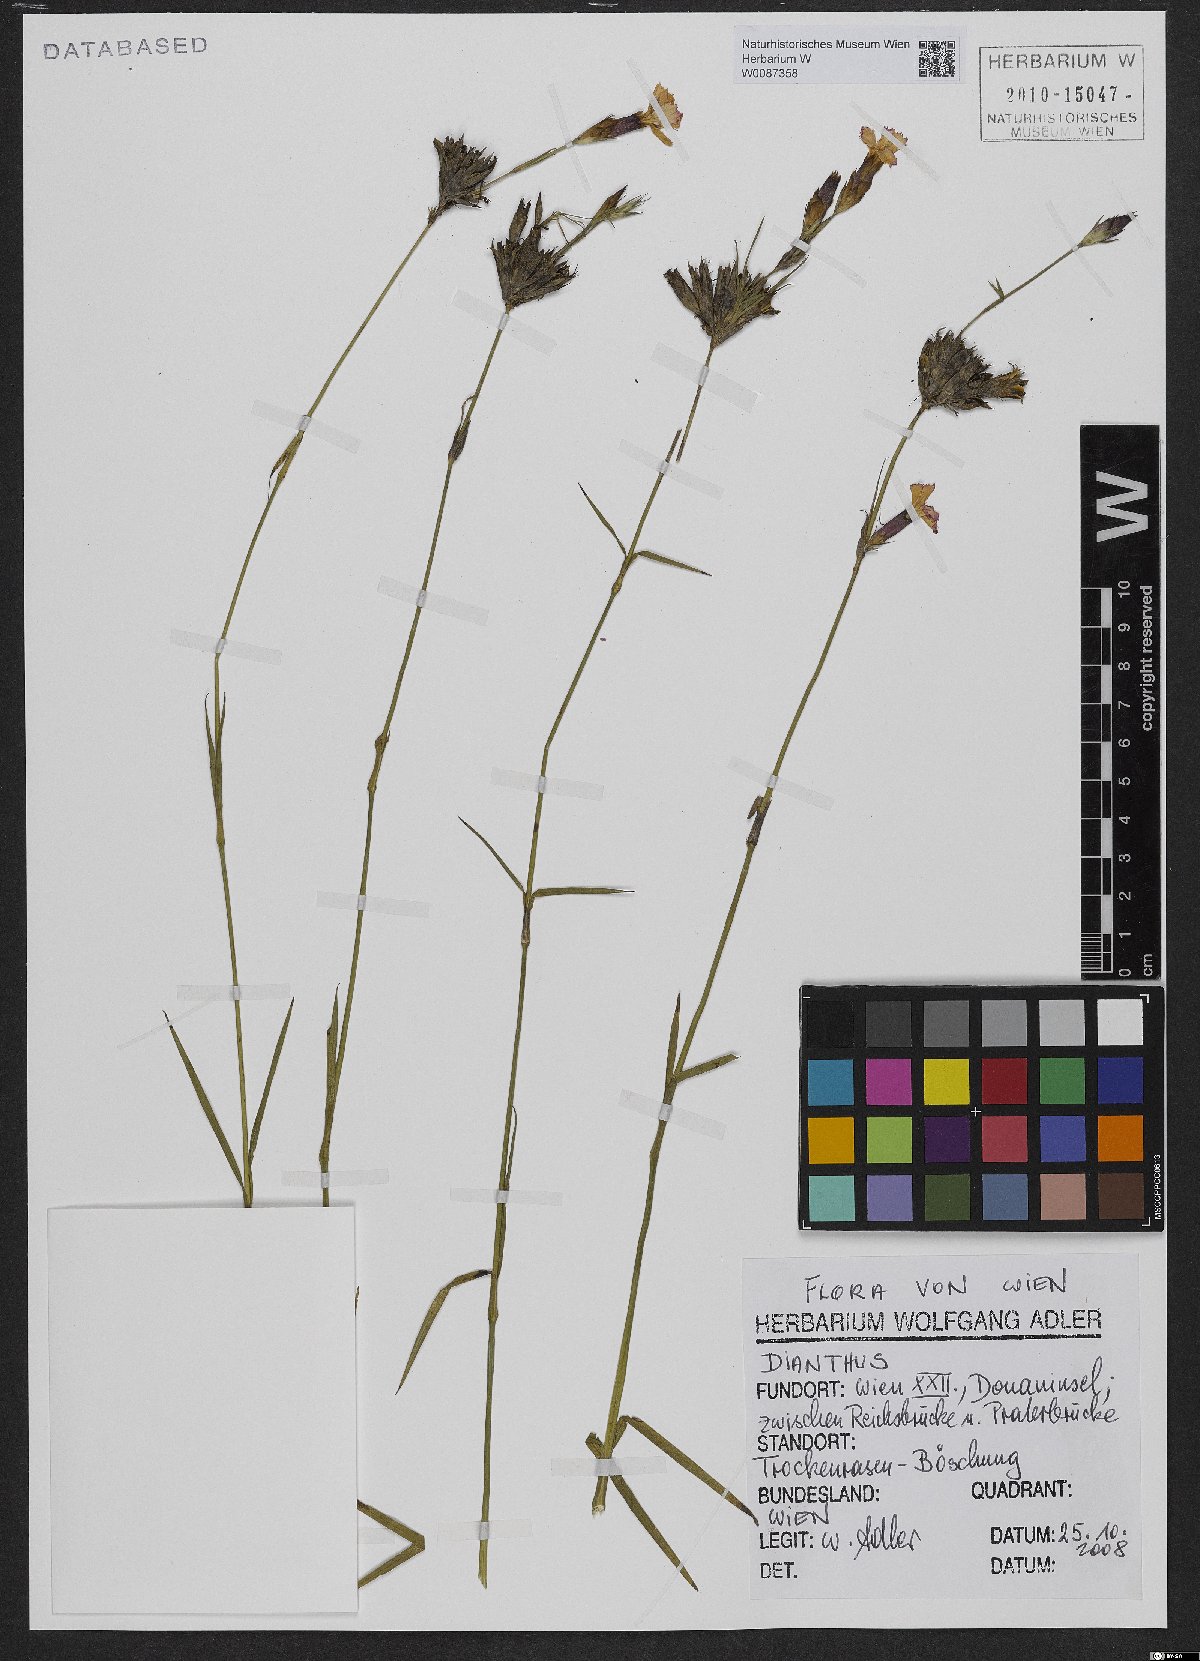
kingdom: Plantae
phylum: Tracheophyta
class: Magnoliopsida
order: Caryophyllales
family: Caryophyllaceae
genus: Dianthus
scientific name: Dianthus carthusianorum
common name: Carthusian pink
